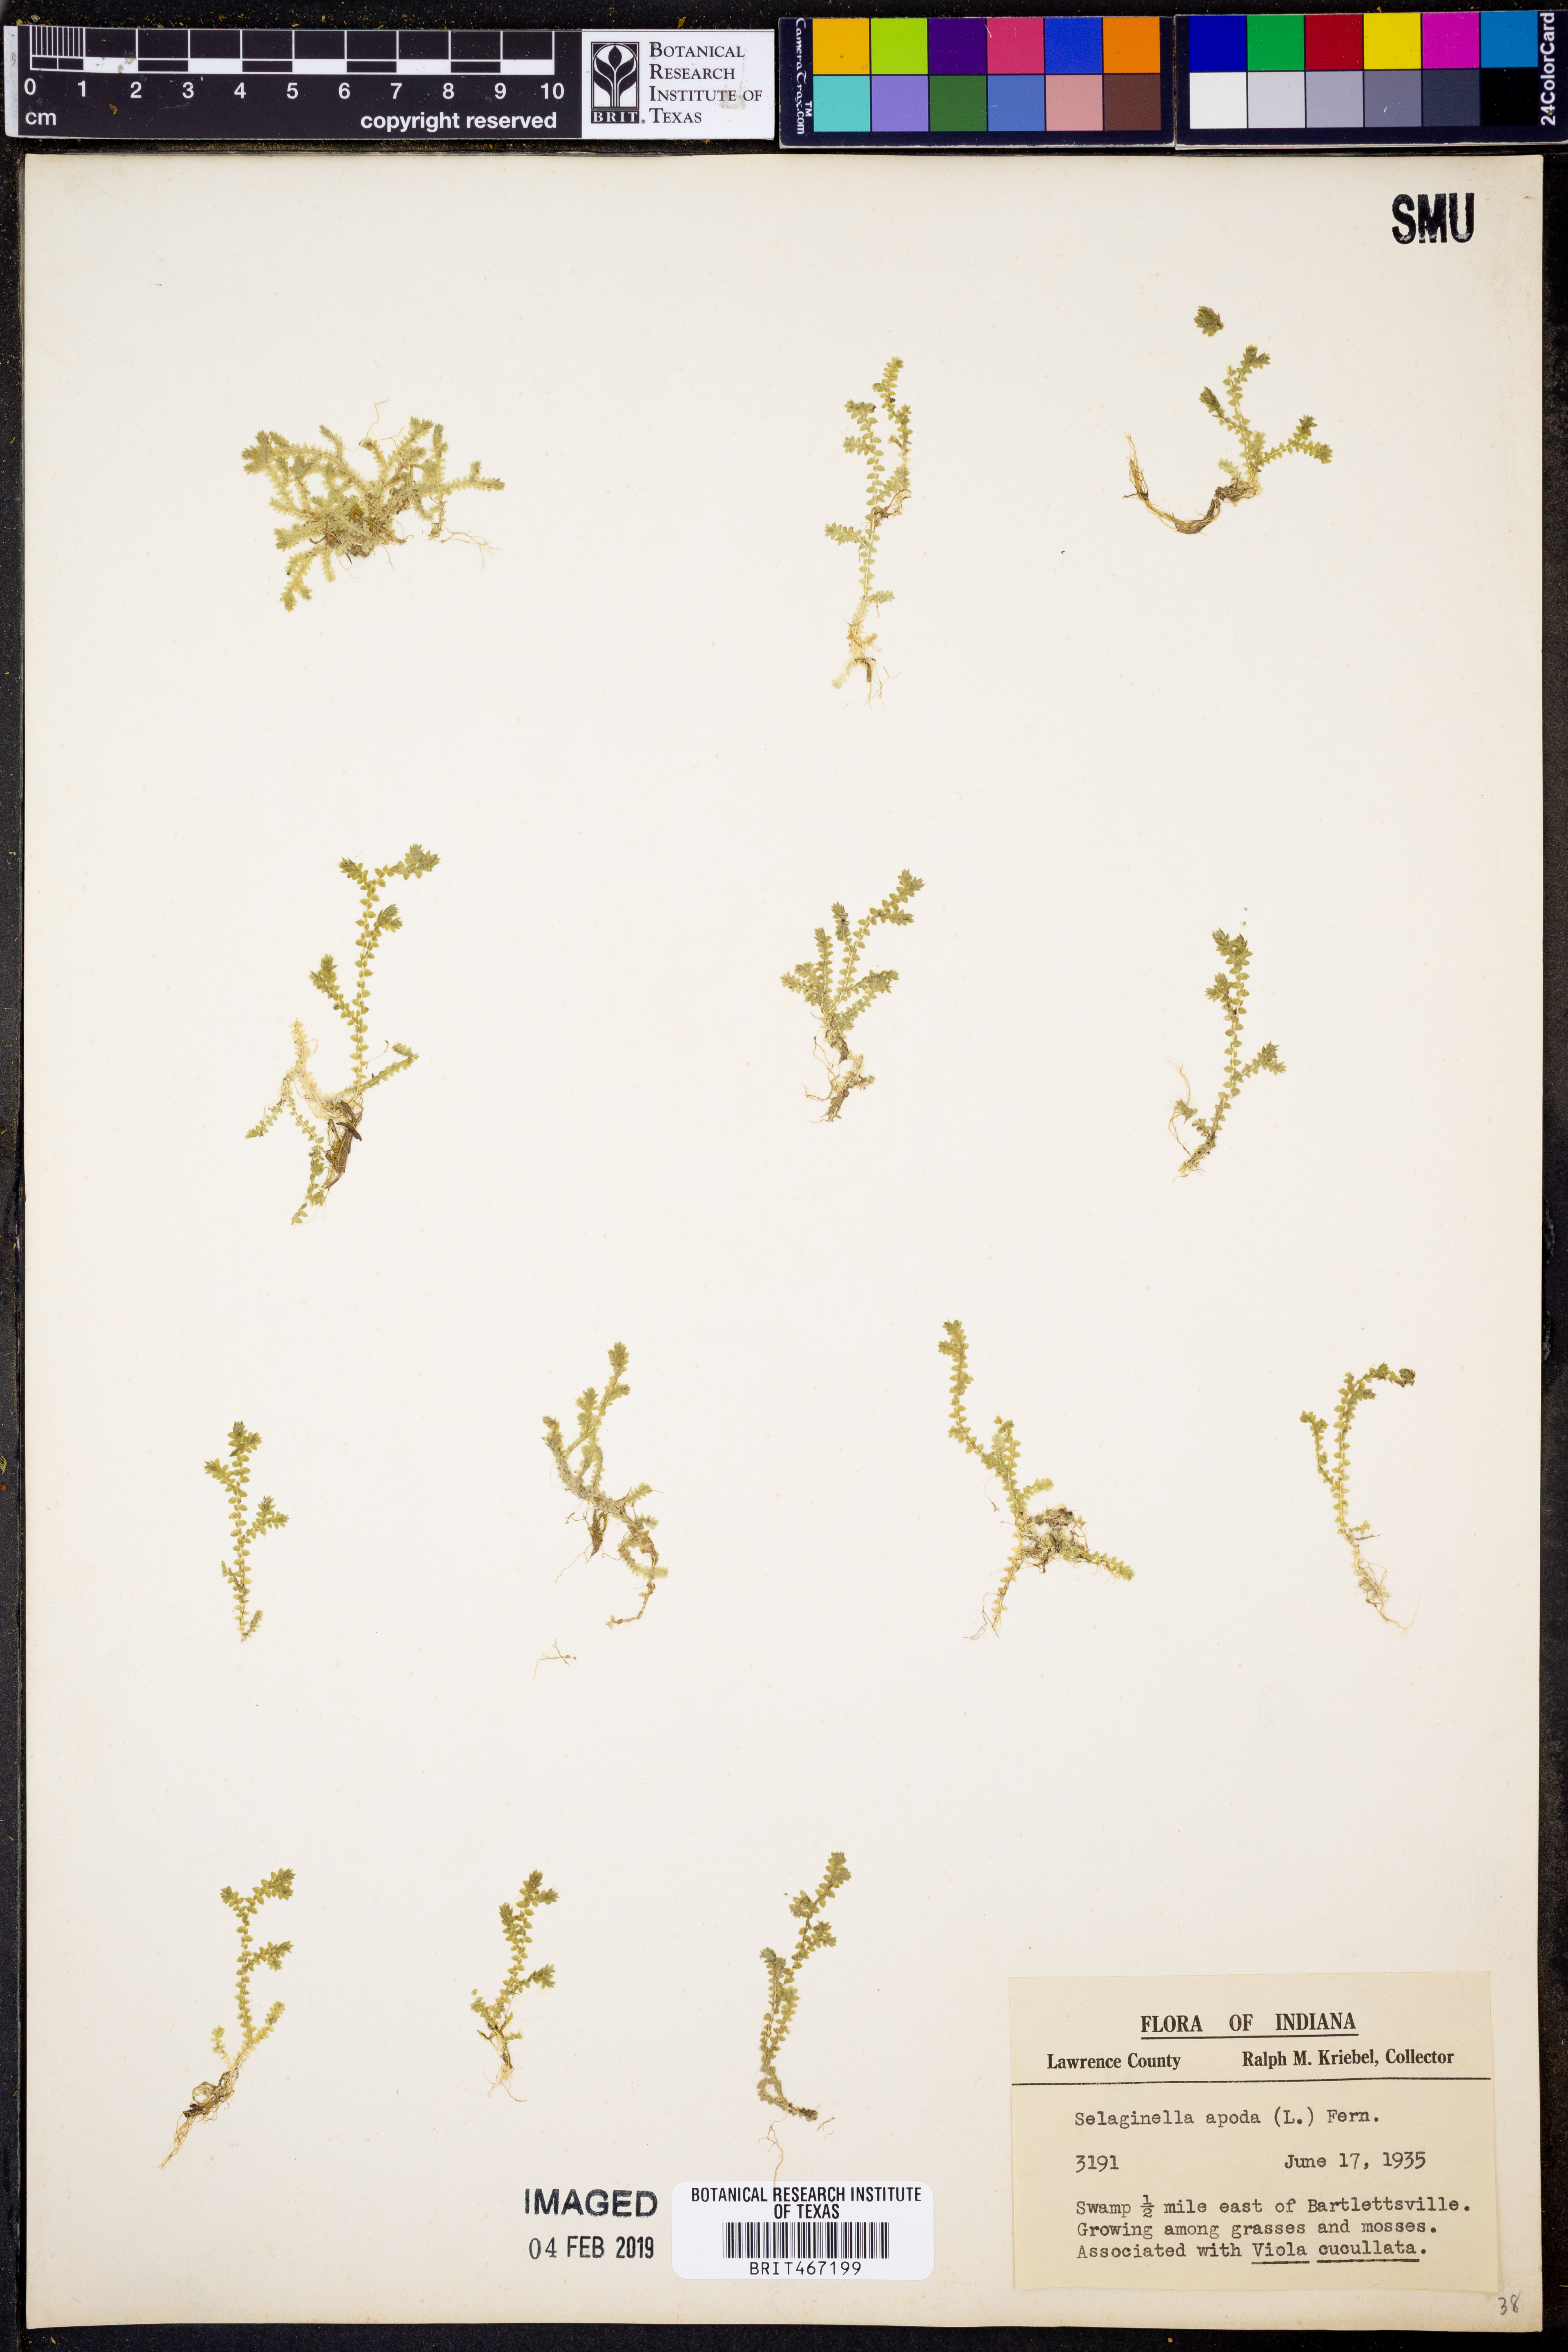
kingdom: Plantae
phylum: Tracheophyta
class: Lycopodiopsida
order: Selaginellales
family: Selaginellaceae
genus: Selaginella
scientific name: Selaginella apoda
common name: Creeping spikemoss
